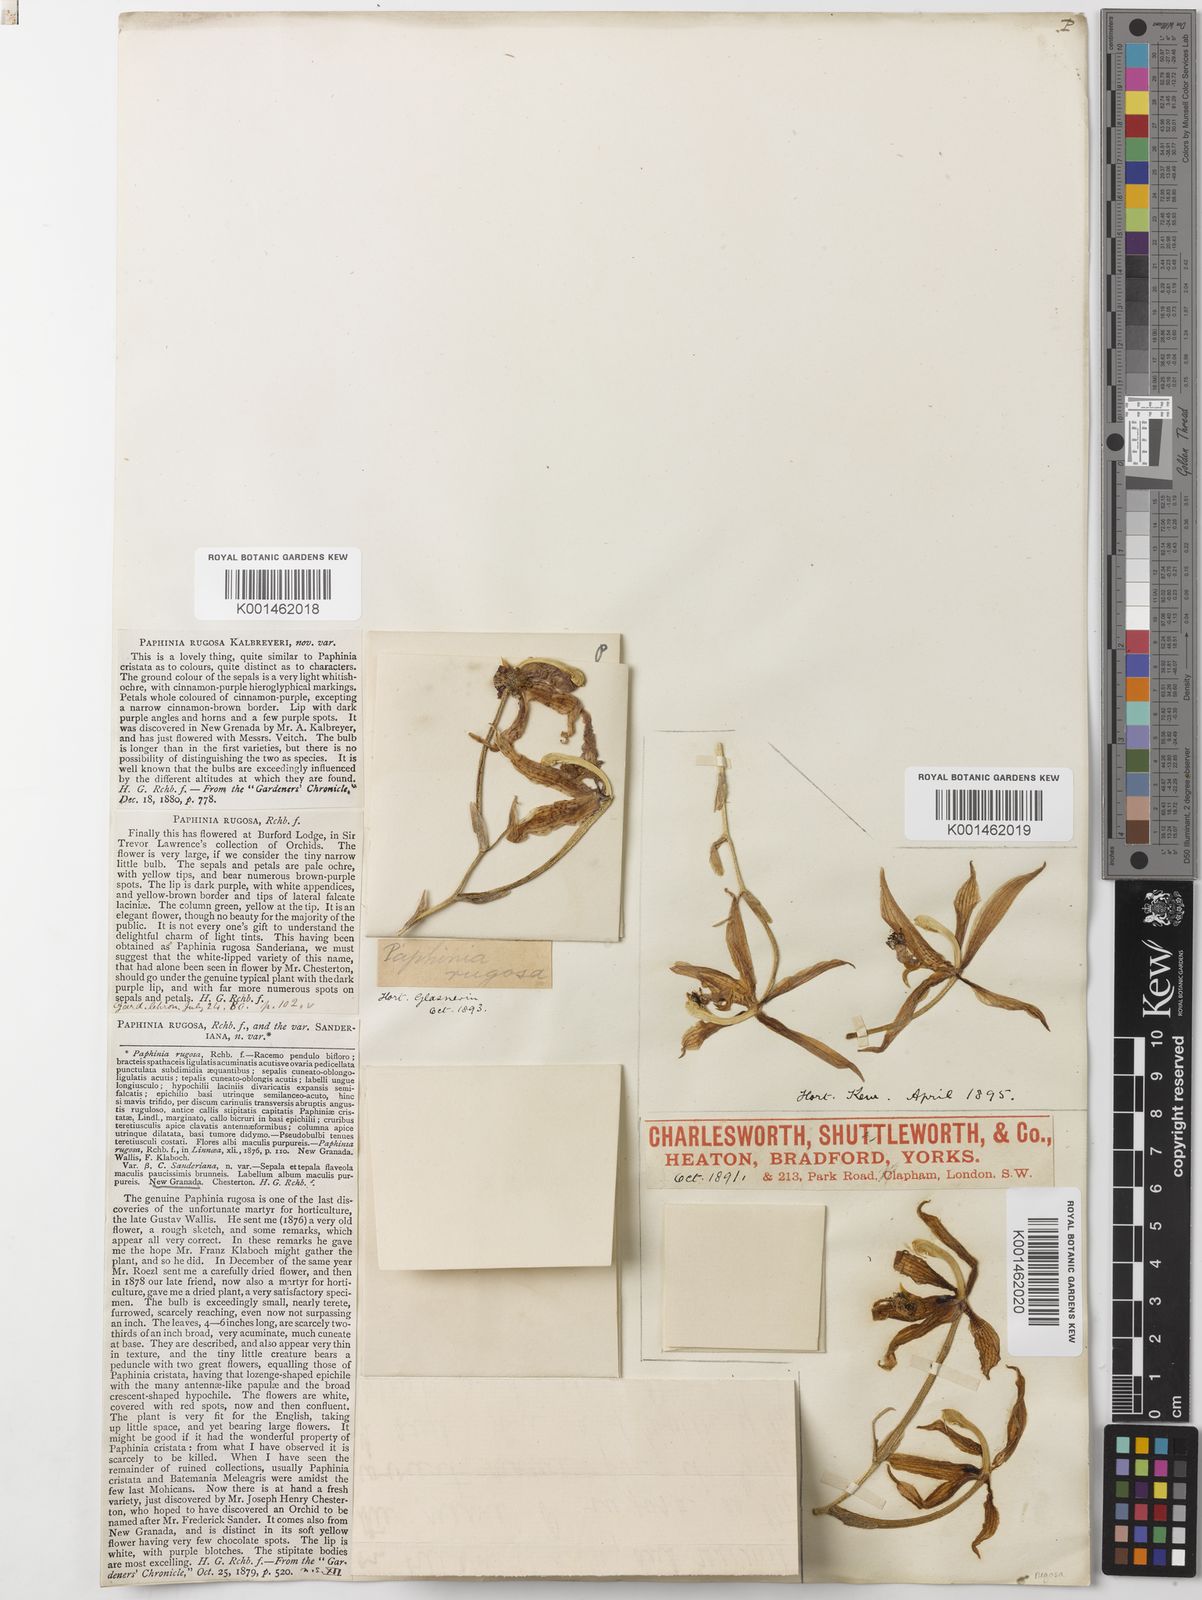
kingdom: Plantae
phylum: Tracheophyta
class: Liliopsida
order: Asparagales
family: Orchidaceae
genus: Paphinia
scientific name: Paphinia rugosa
